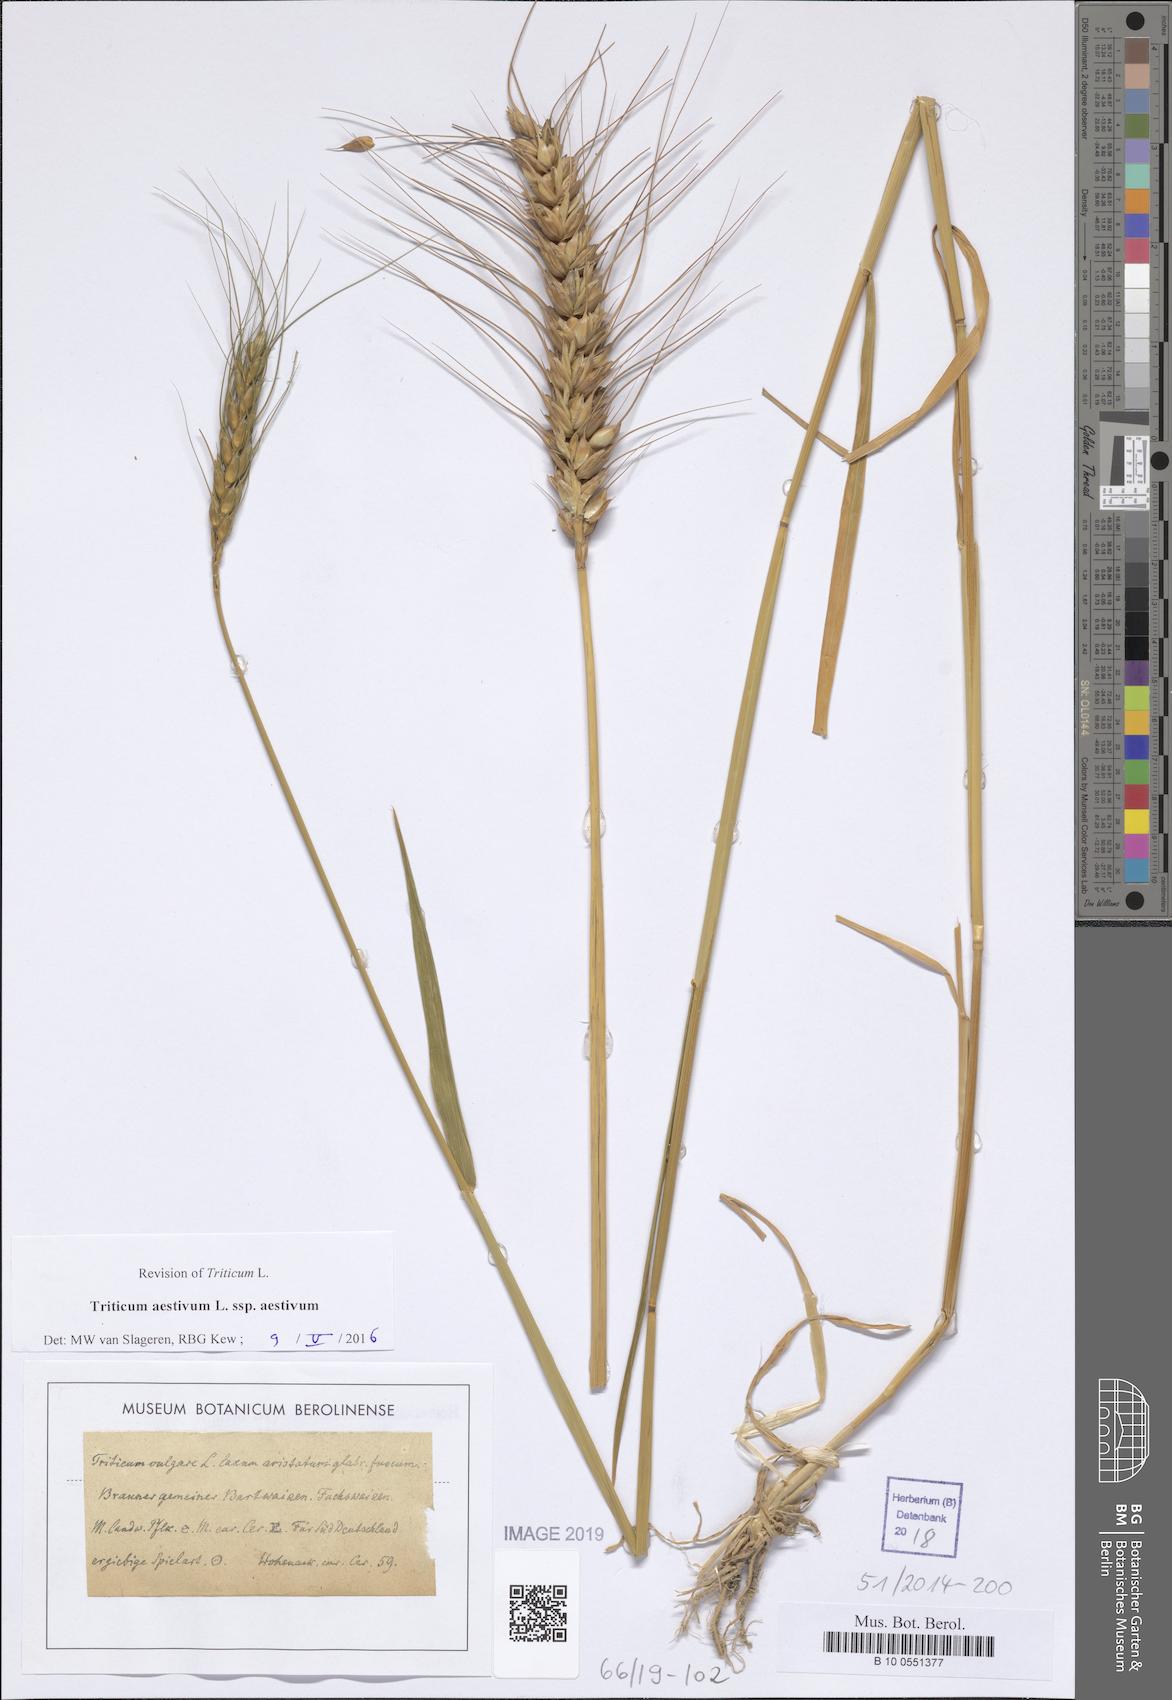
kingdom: Plantae
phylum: Tracheophyta
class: Liliopsida
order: Poales
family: Poaceae
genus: Triticum
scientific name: Triticum aestivum
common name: Common wheat
